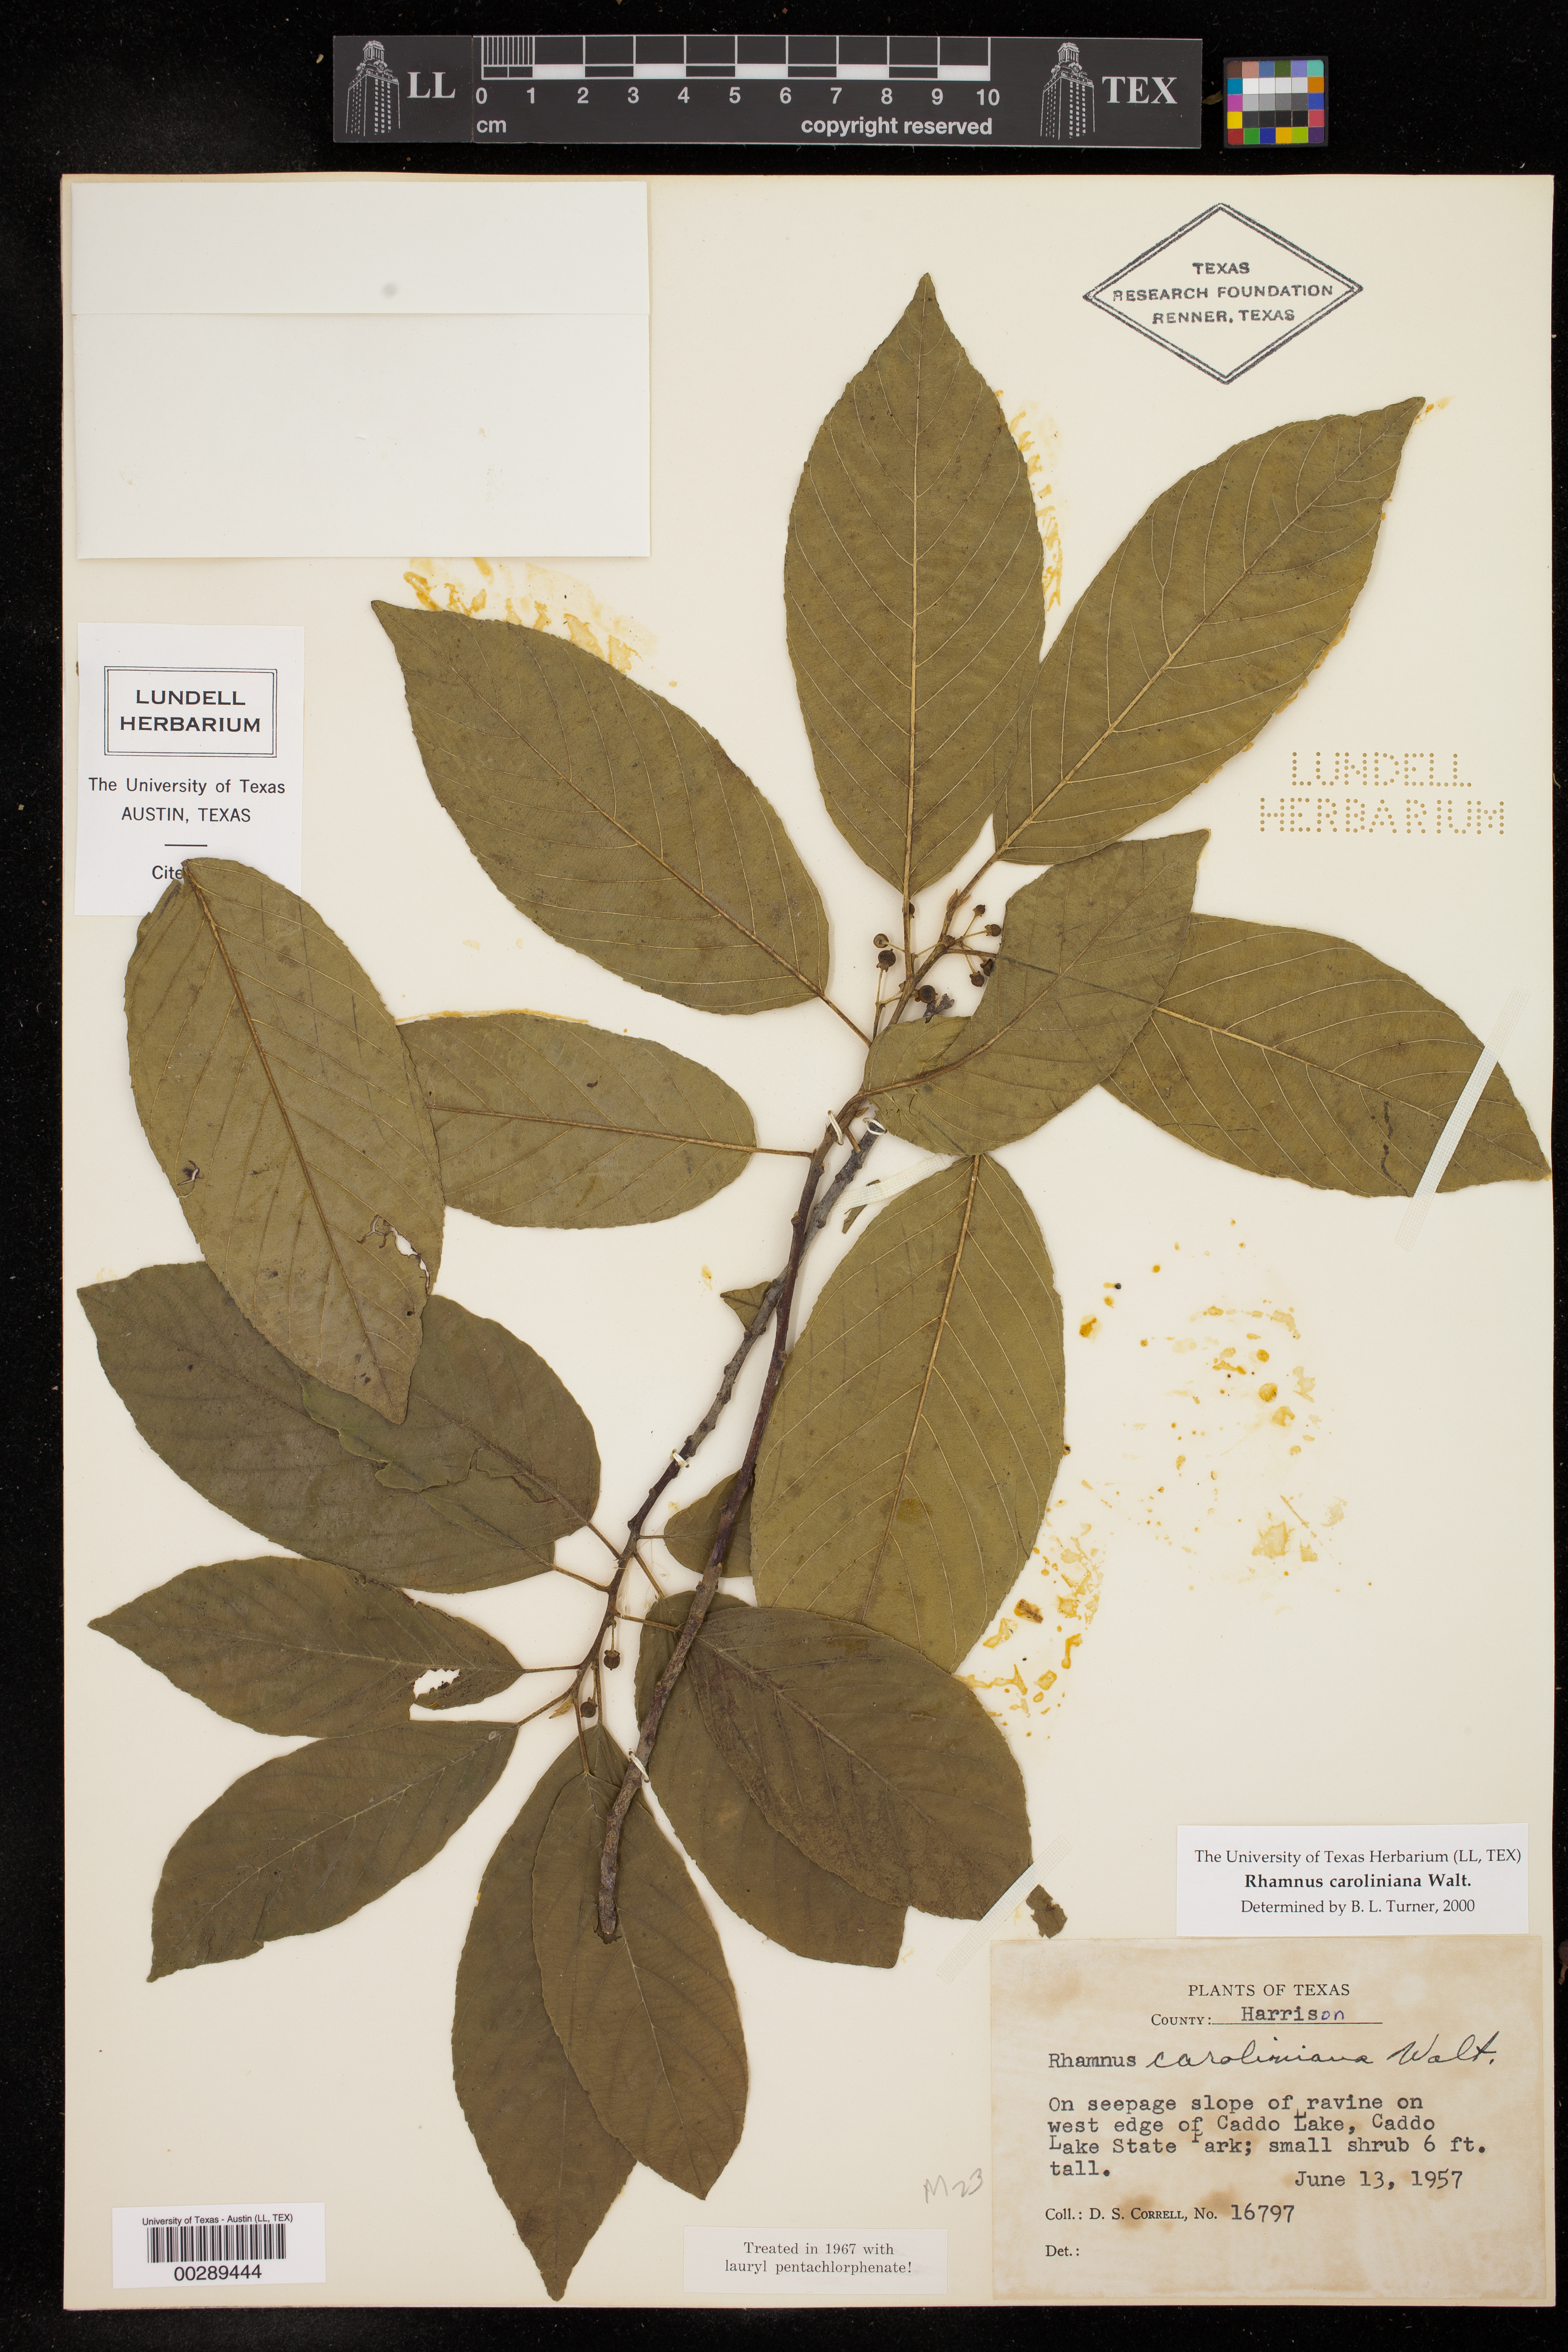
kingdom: Plantae
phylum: Tracheophyta
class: Magnoliopsida
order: Rosales
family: Rhamnaceae
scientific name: Rhamnaceae
